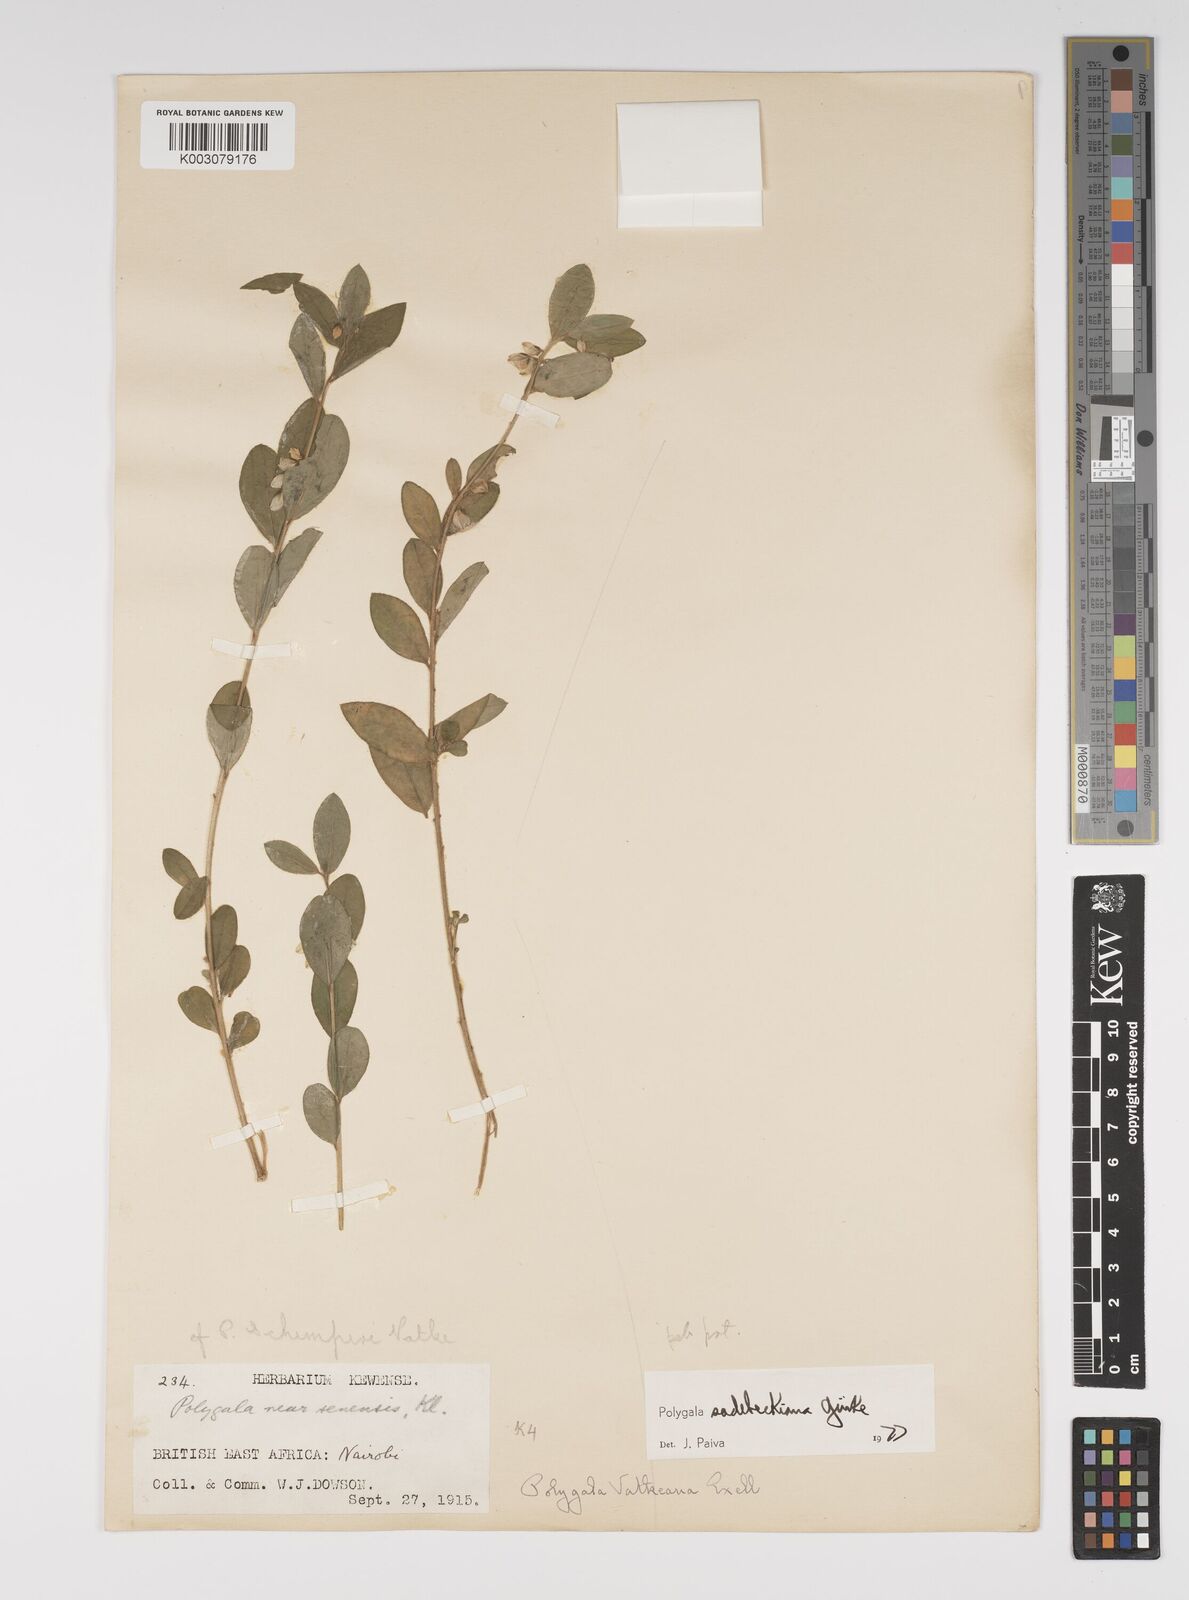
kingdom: Plantae
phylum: Tracheophyta
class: Magnoliopsida
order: Fabales
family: Polygalaceae
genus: Polygala
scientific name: Polygala sadebeckiana
